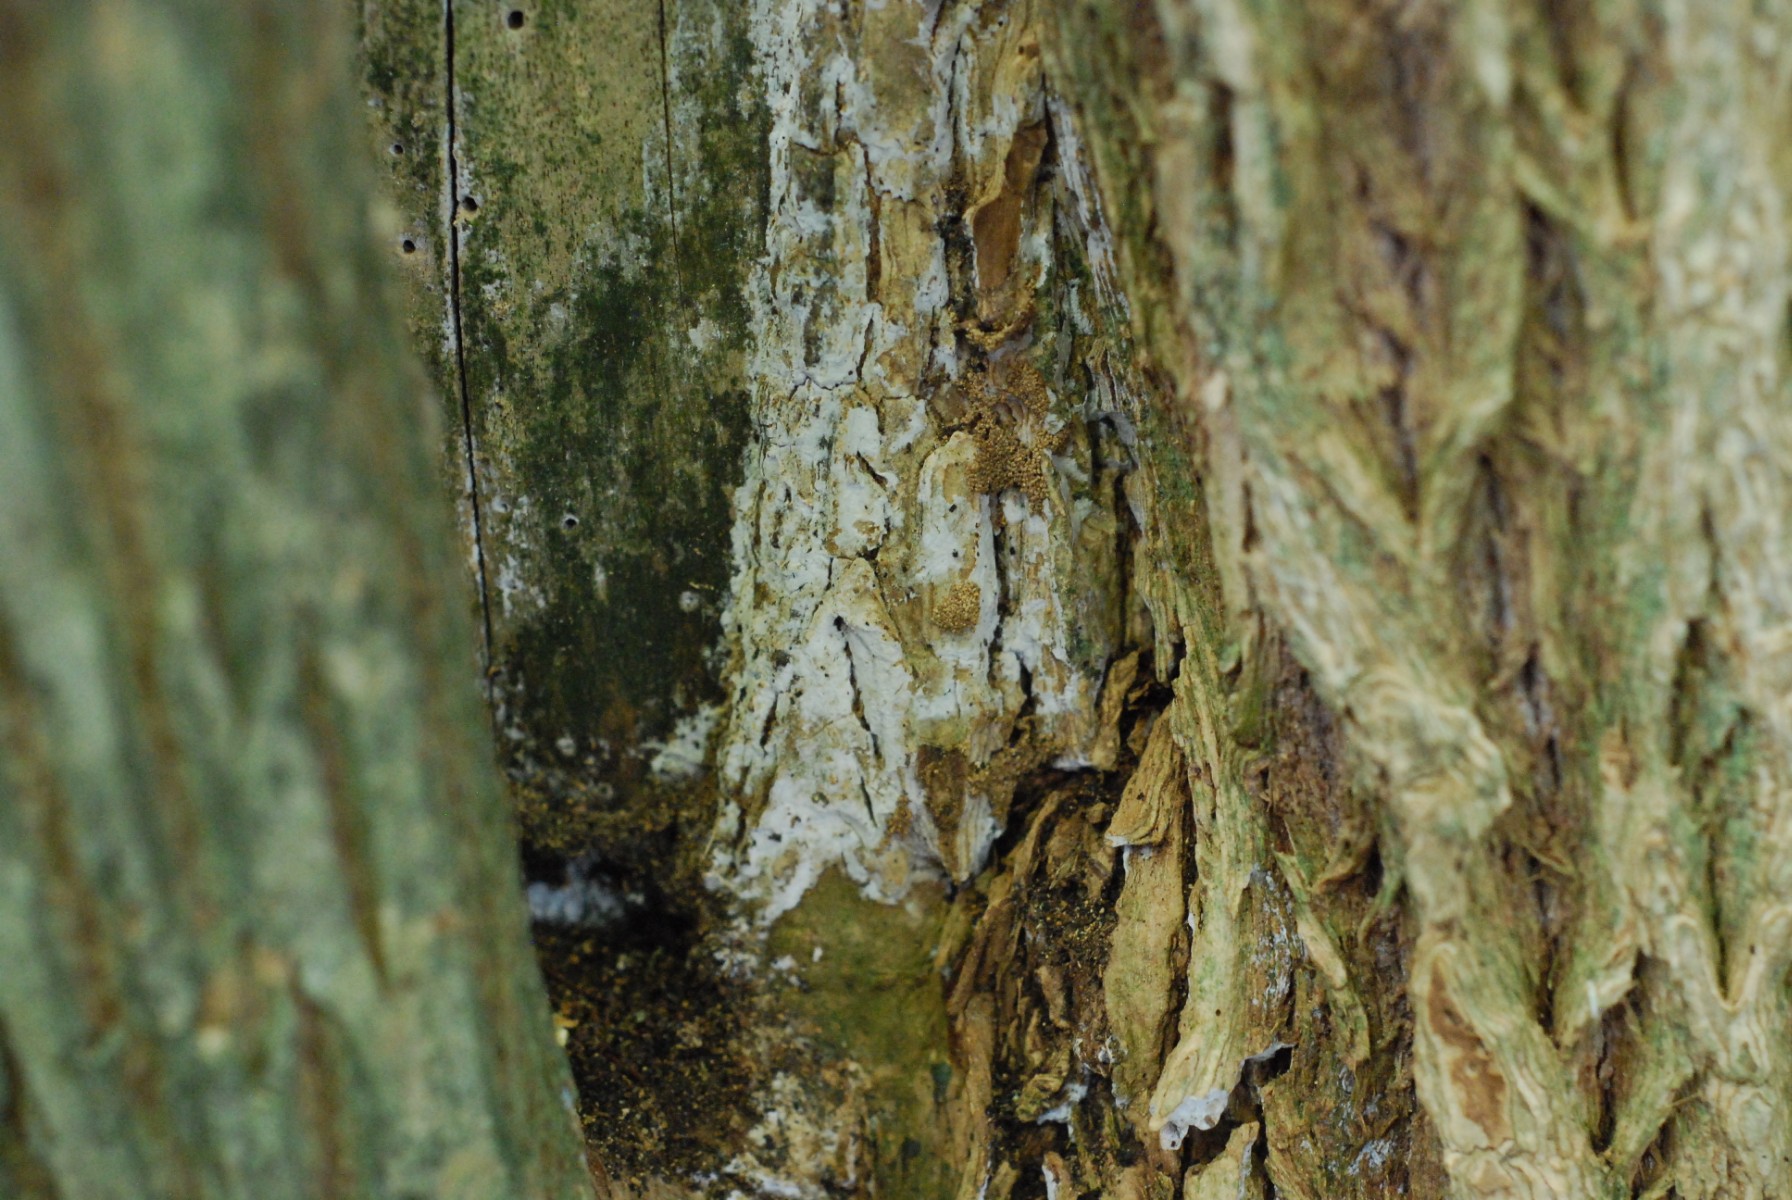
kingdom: Fungi
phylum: Basidiomycota
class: Agaricomycetes
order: Corticiales
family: Corticiaceae
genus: Lyomyces
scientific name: Lyomyces sambuci
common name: almindelig hyldehinde
